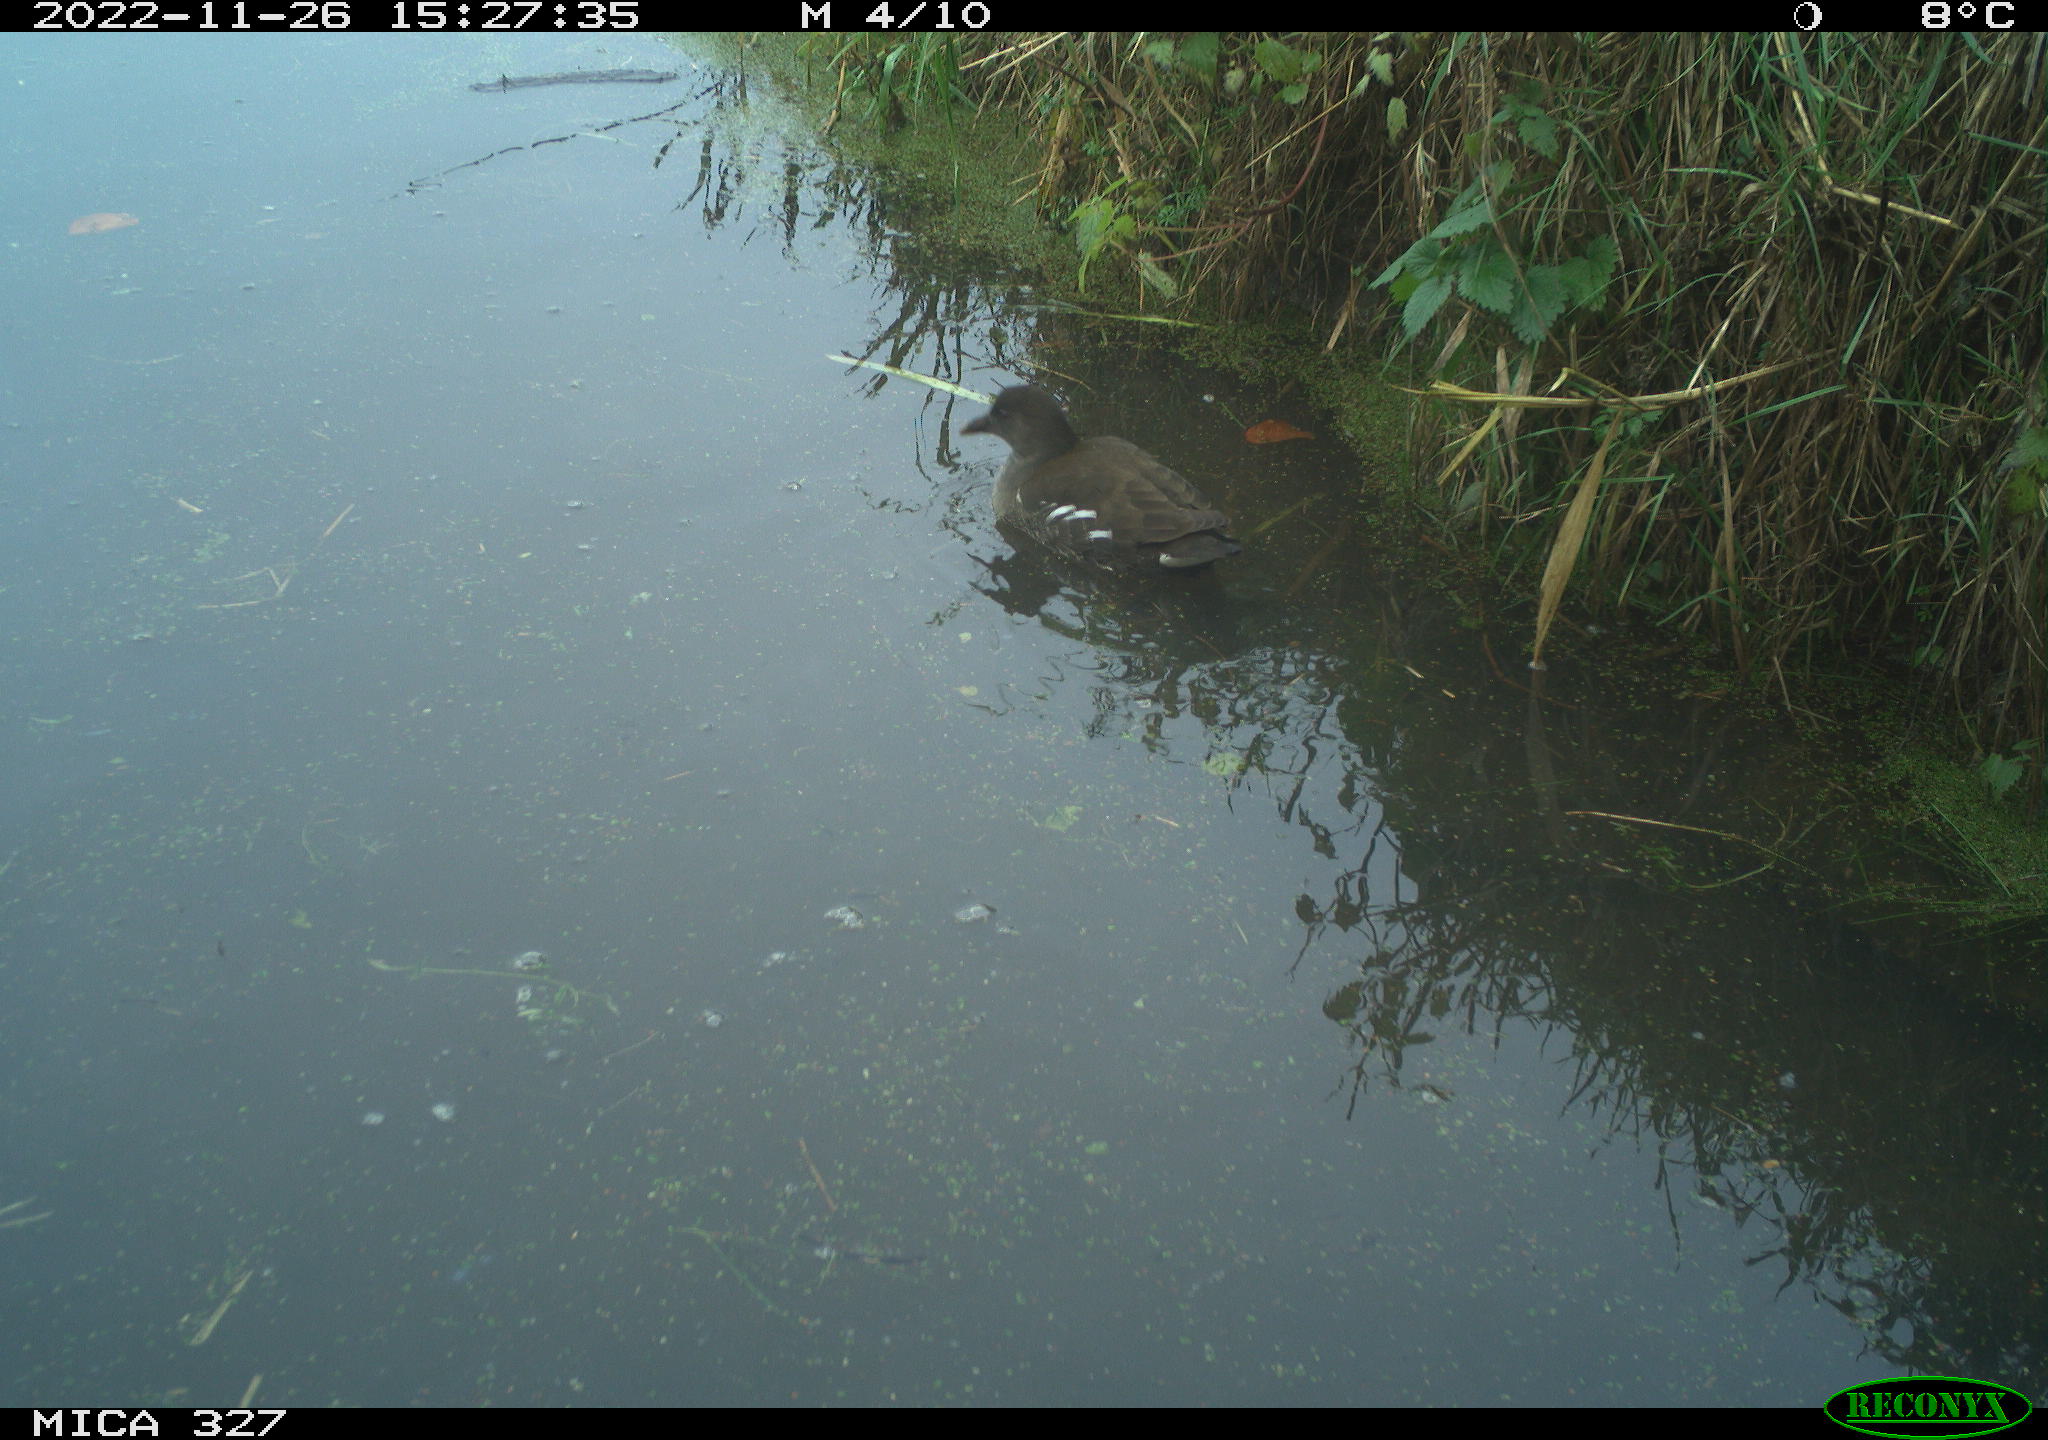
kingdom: Animalia
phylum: Chordata
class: Aves
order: Gruiformes
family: Rallidae
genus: Gallinula
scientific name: Gallinula chloropus
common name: Common moorhen
